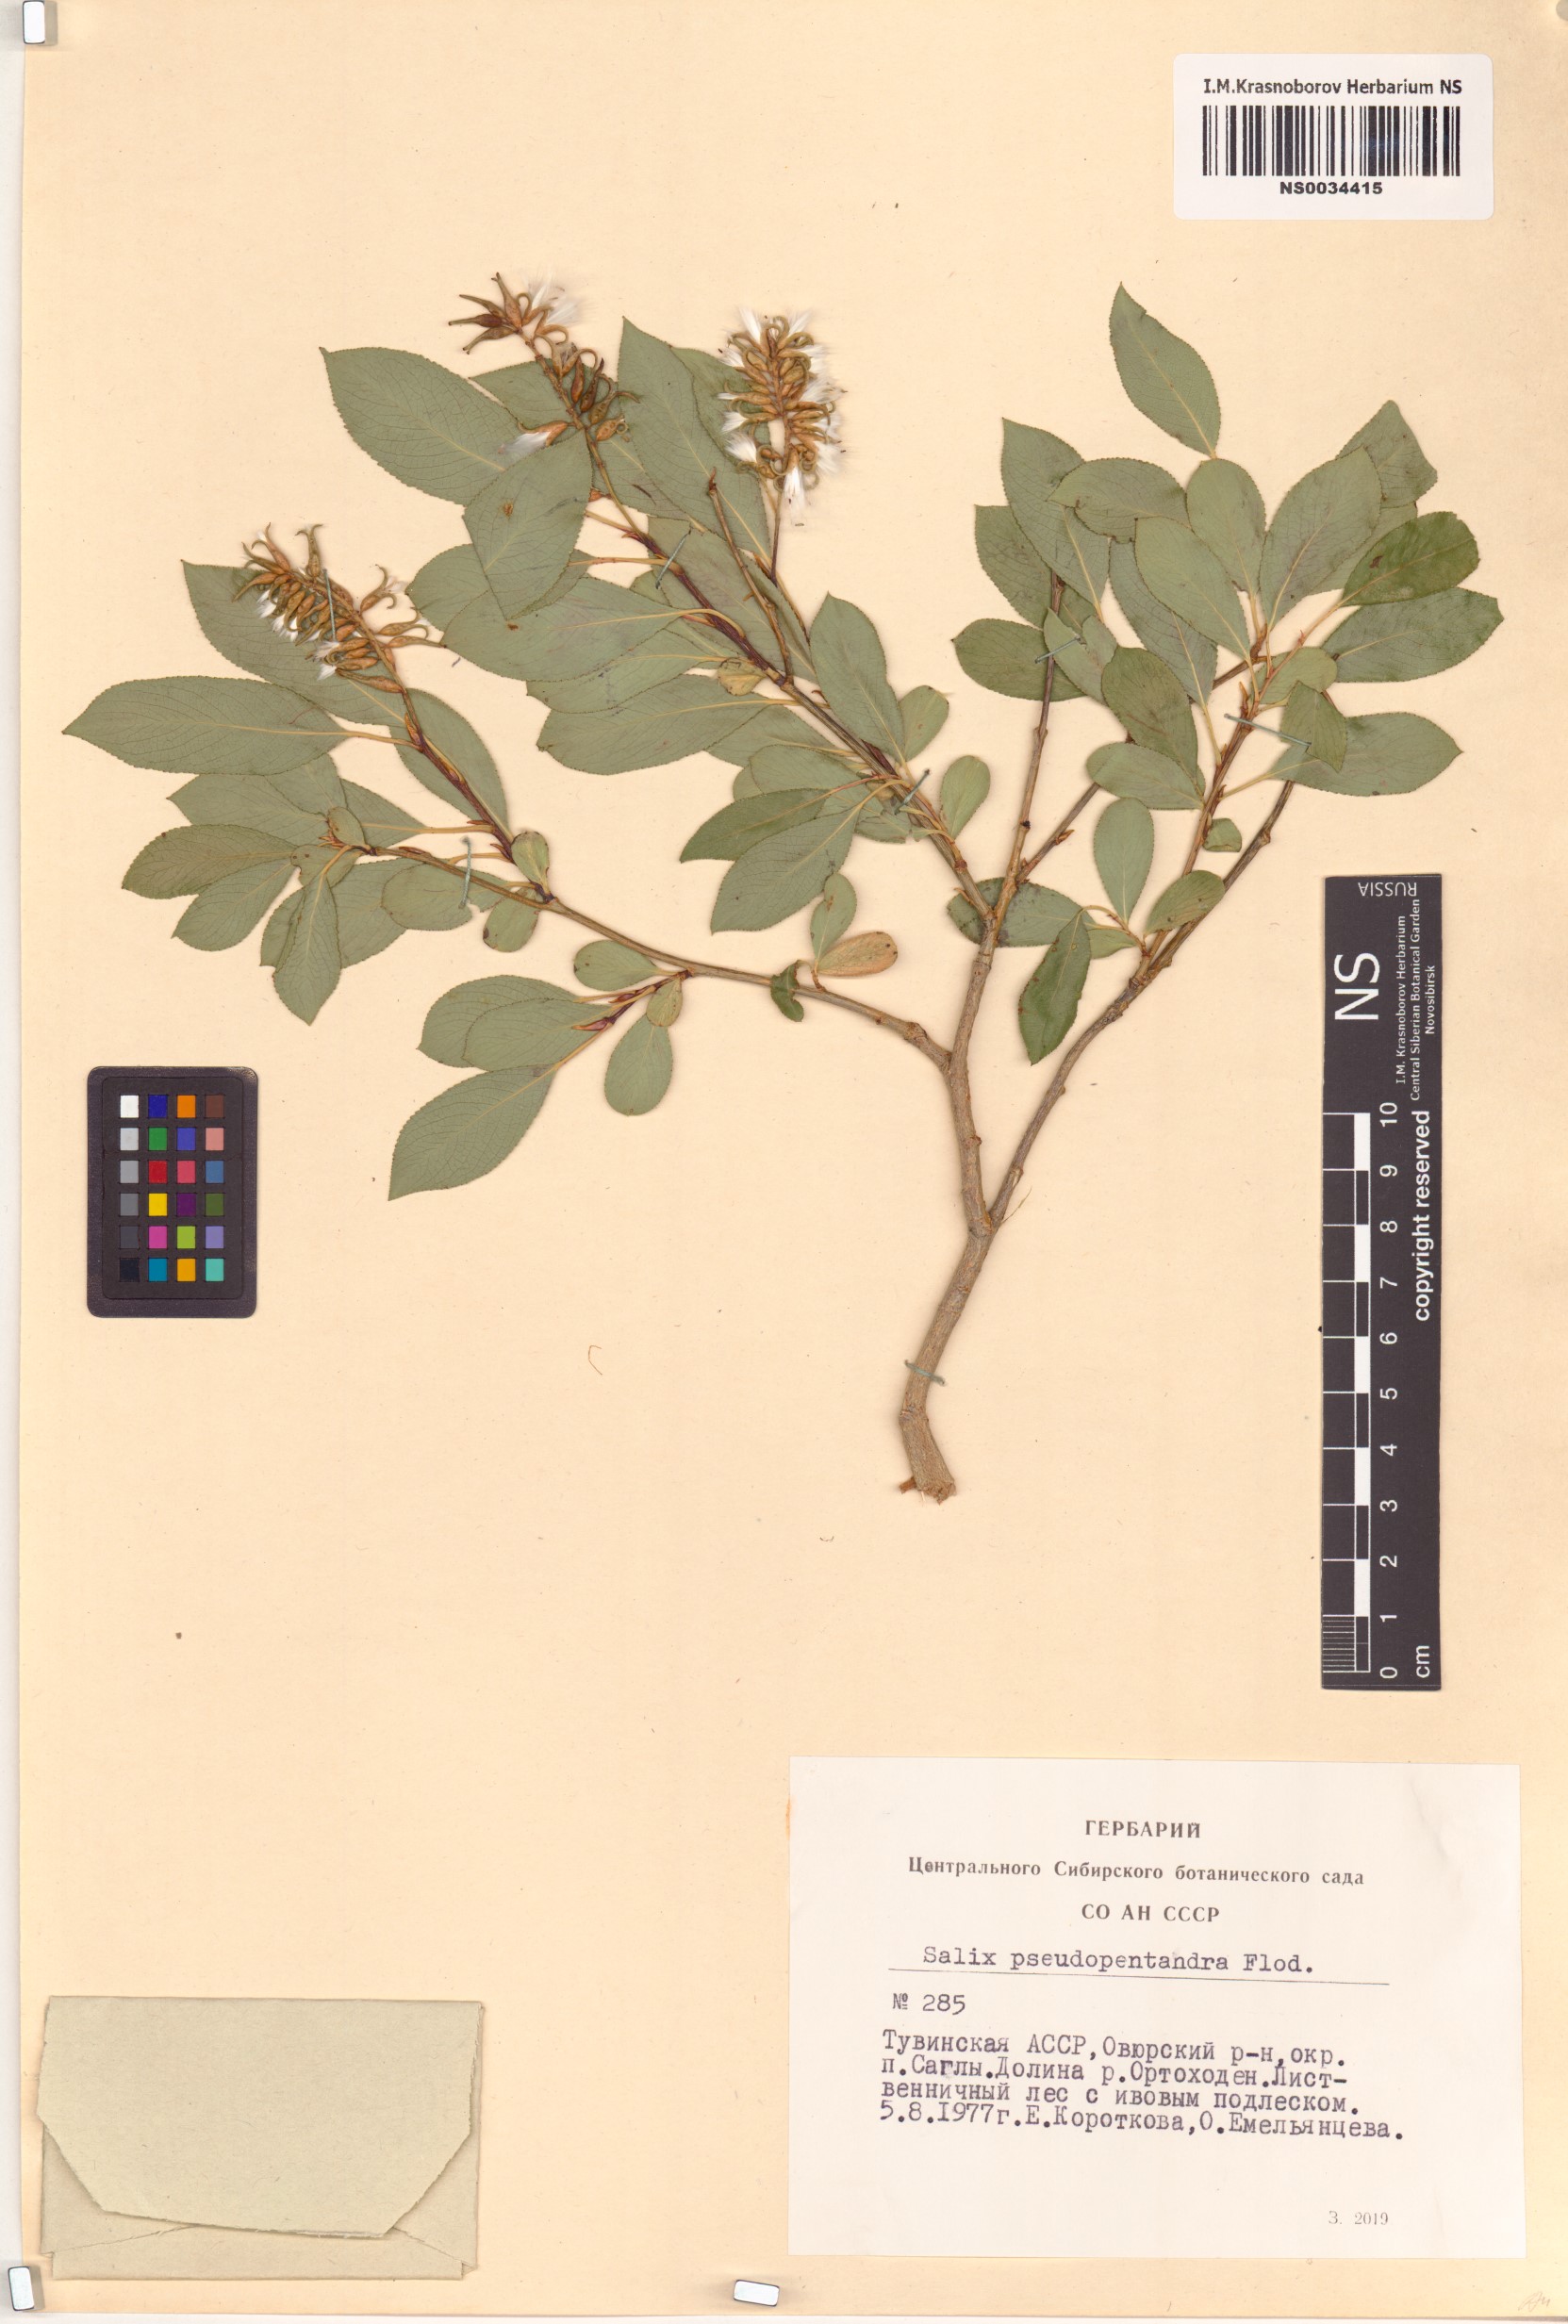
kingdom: Plantae
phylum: Tracheophyta
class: Magnoliopsida
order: Malpighiales
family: Salicaceae
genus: Salix
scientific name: Salix pseudopentandra
